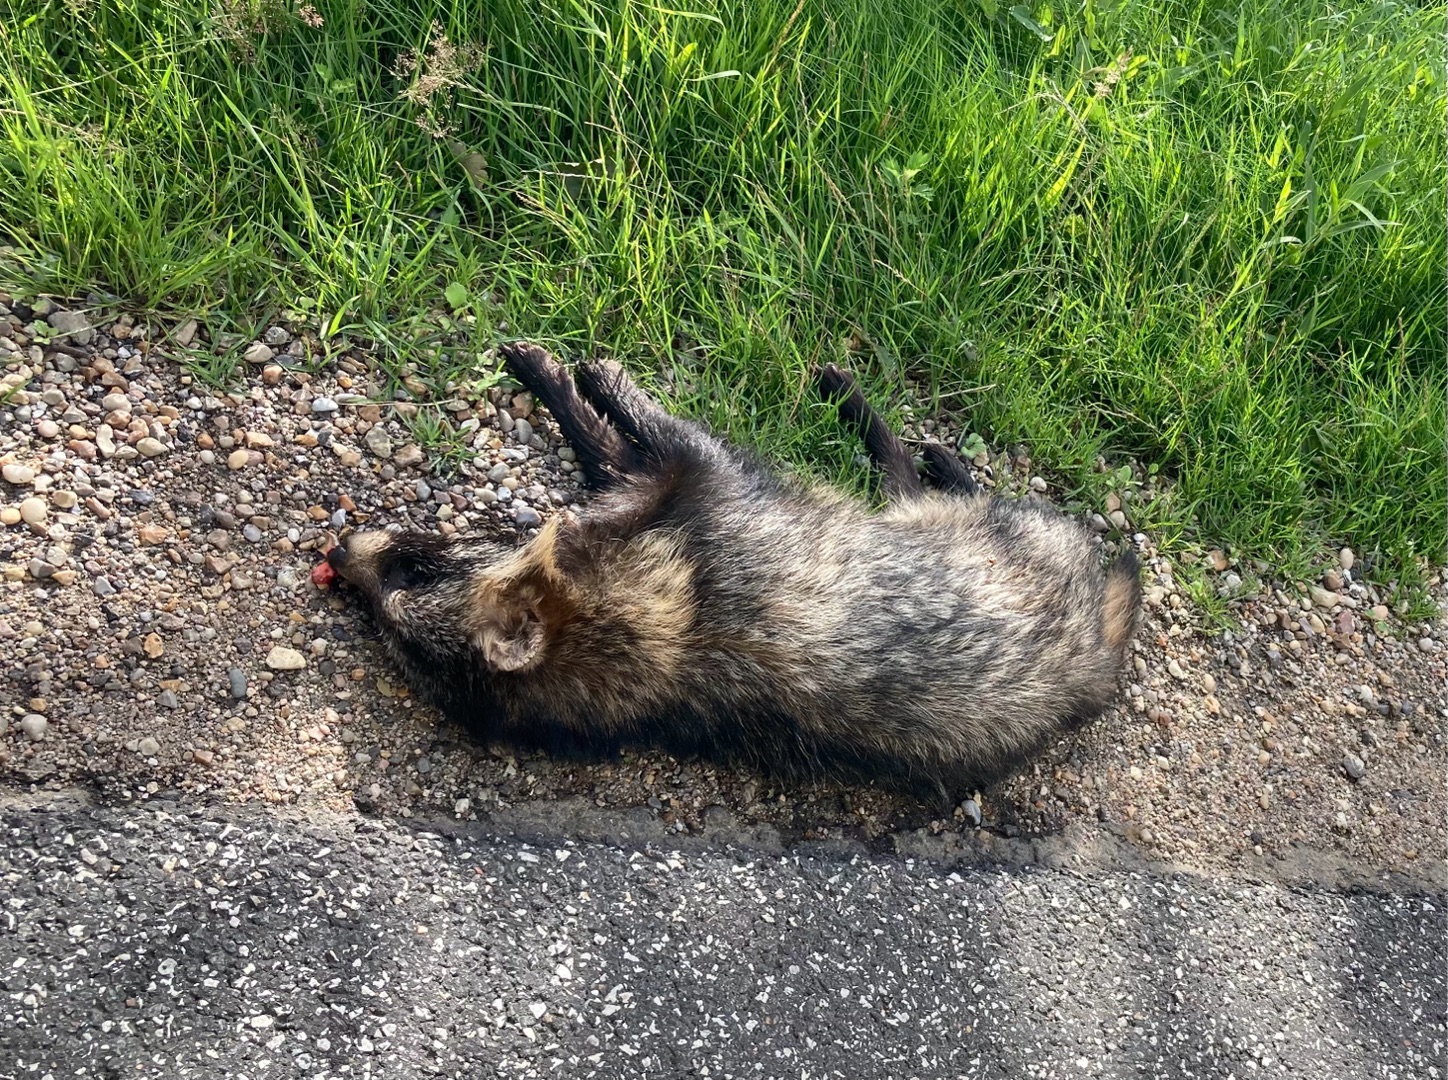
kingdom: Animalia
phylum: Chordata
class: Mammalia
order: Carnivora
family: Canidae
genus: Nyctereutes
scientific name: Nyctereutes procyonoides
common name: Mårhund
